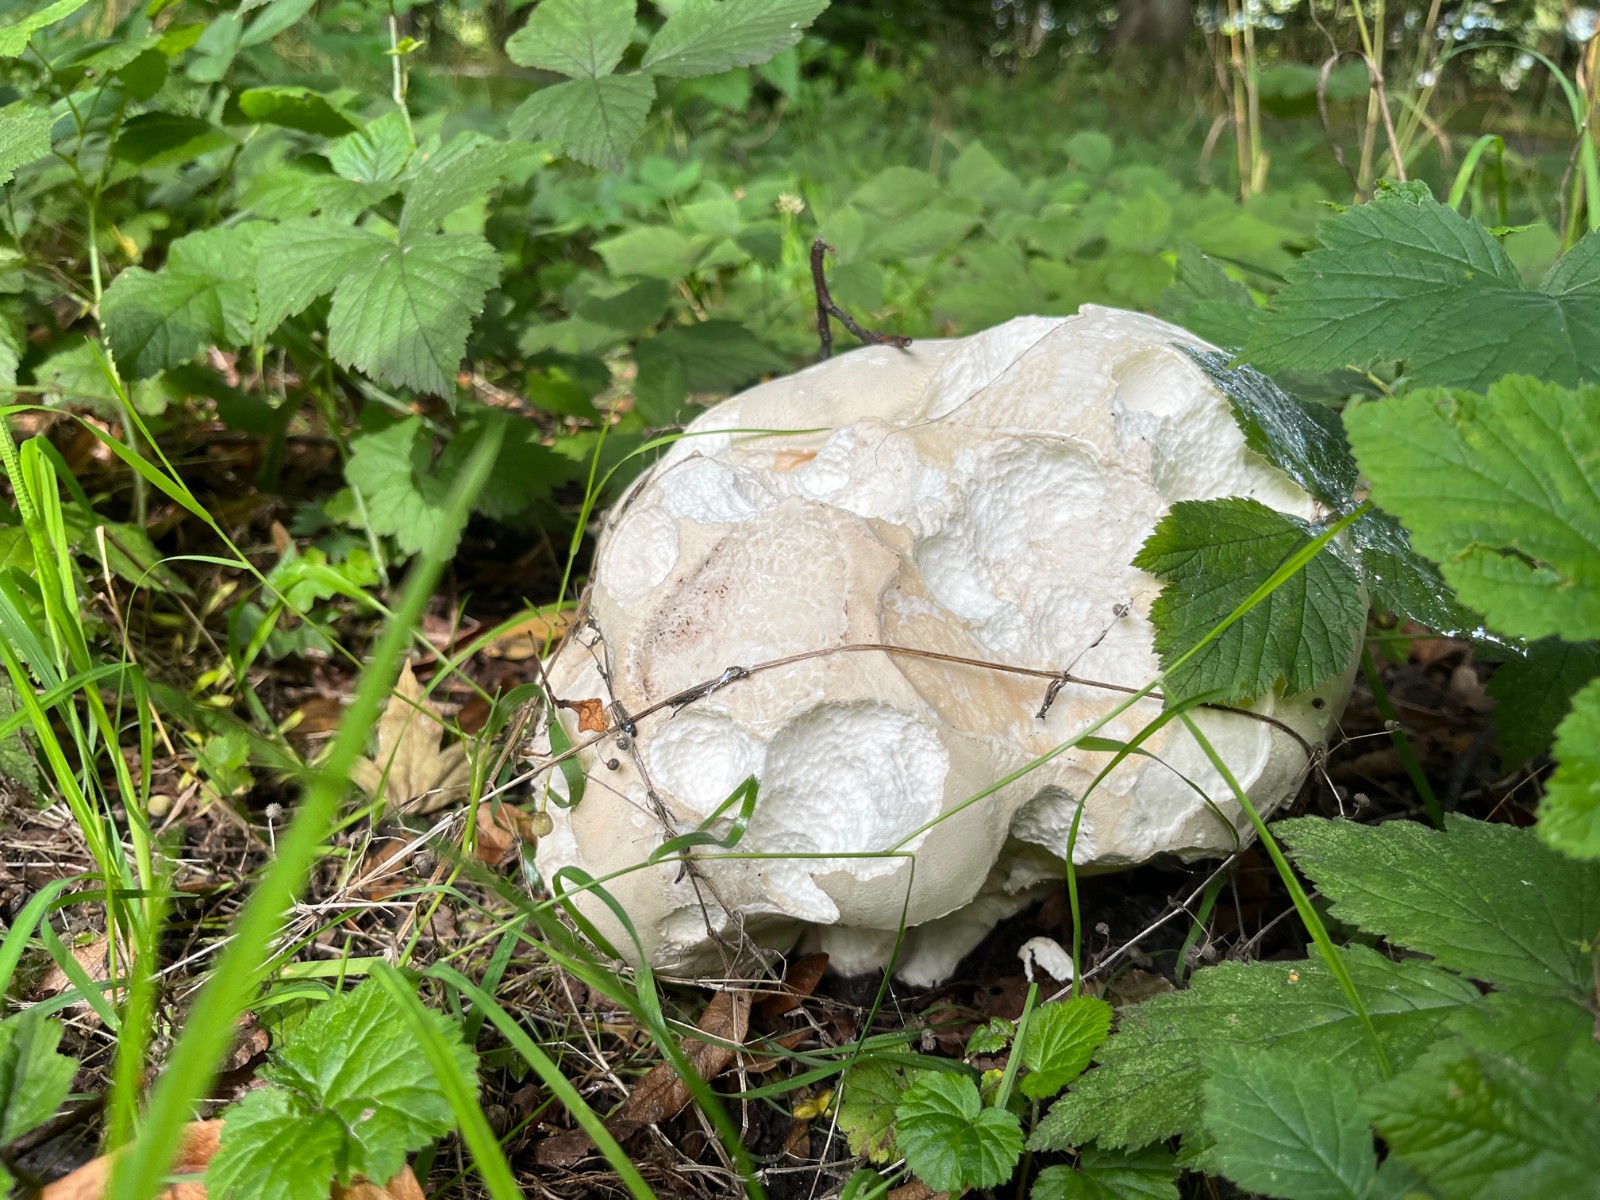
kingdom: Fungi
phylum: Basidiomycota
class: Agaricomycetes
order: Agaricales
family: Lycoperdaceae
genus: Calvatia
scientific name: Calvatia gigantea
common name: kæmpestøvbold
